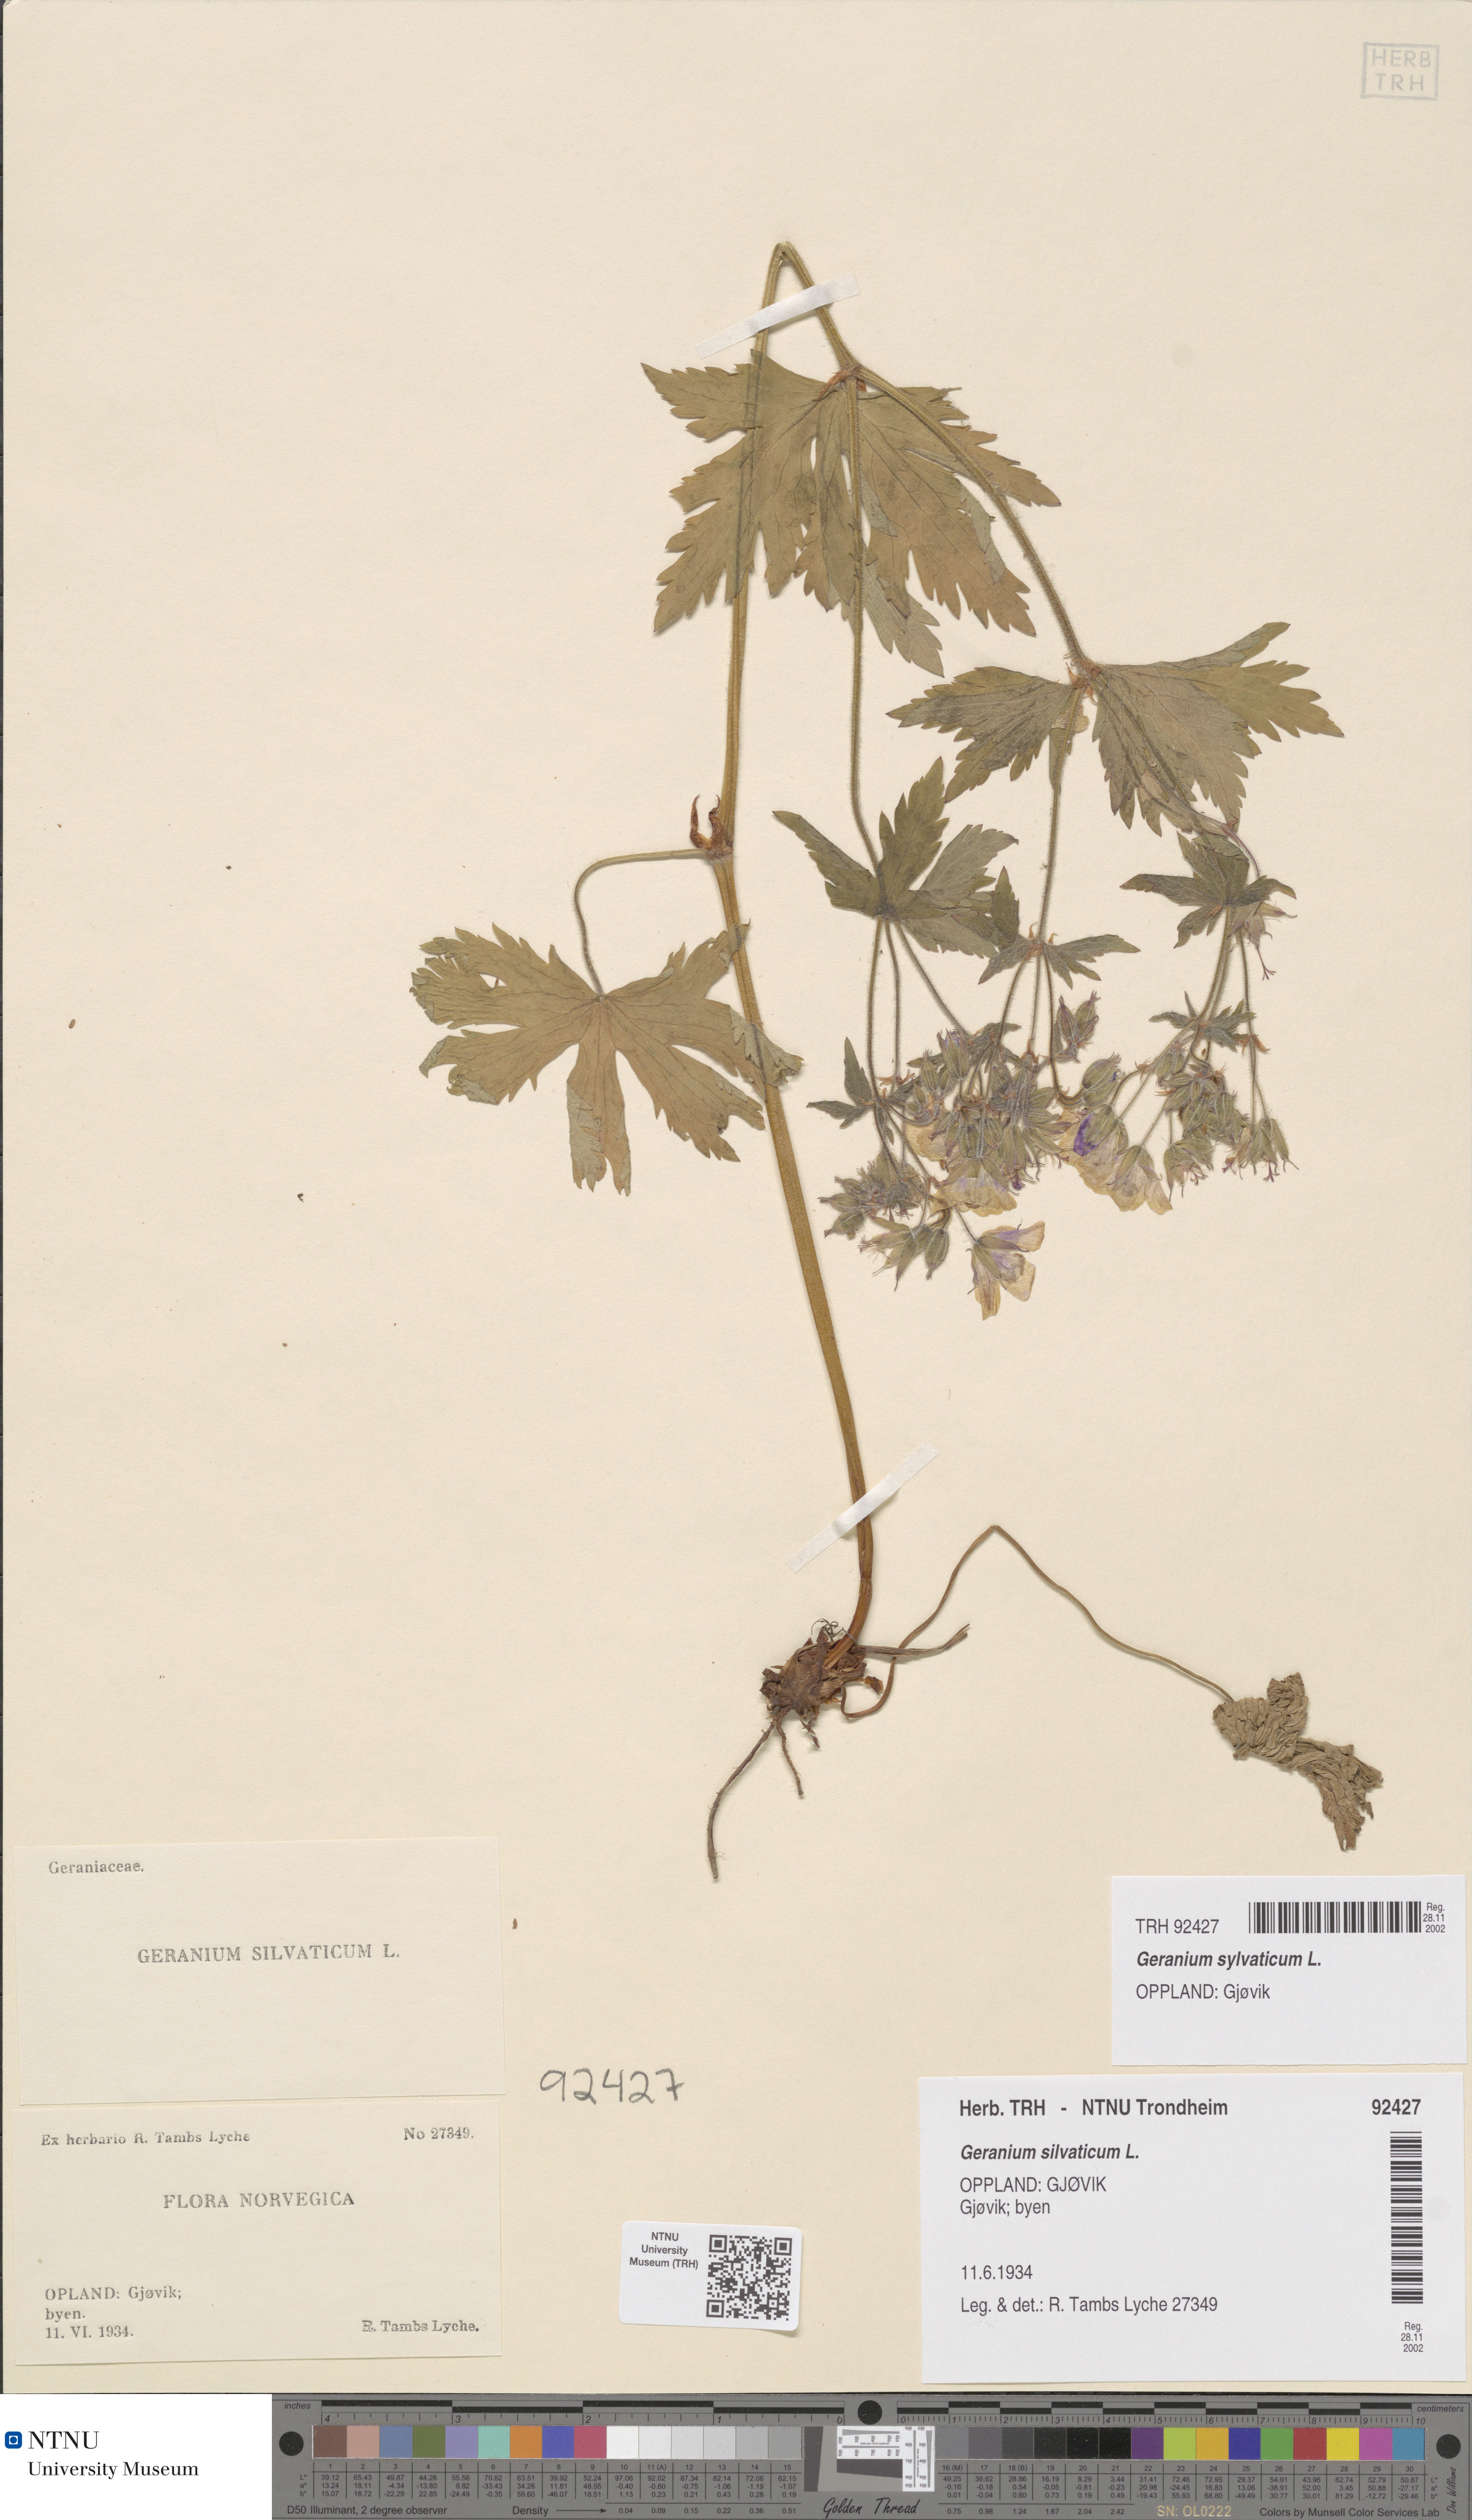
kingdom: Plantae
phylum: Tracheophyta
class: Magnoliopsida
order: Geraniales
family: Geraniaceae
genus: Geranium
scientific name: Geranium sylvaticum
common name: Wood crane's-bill
